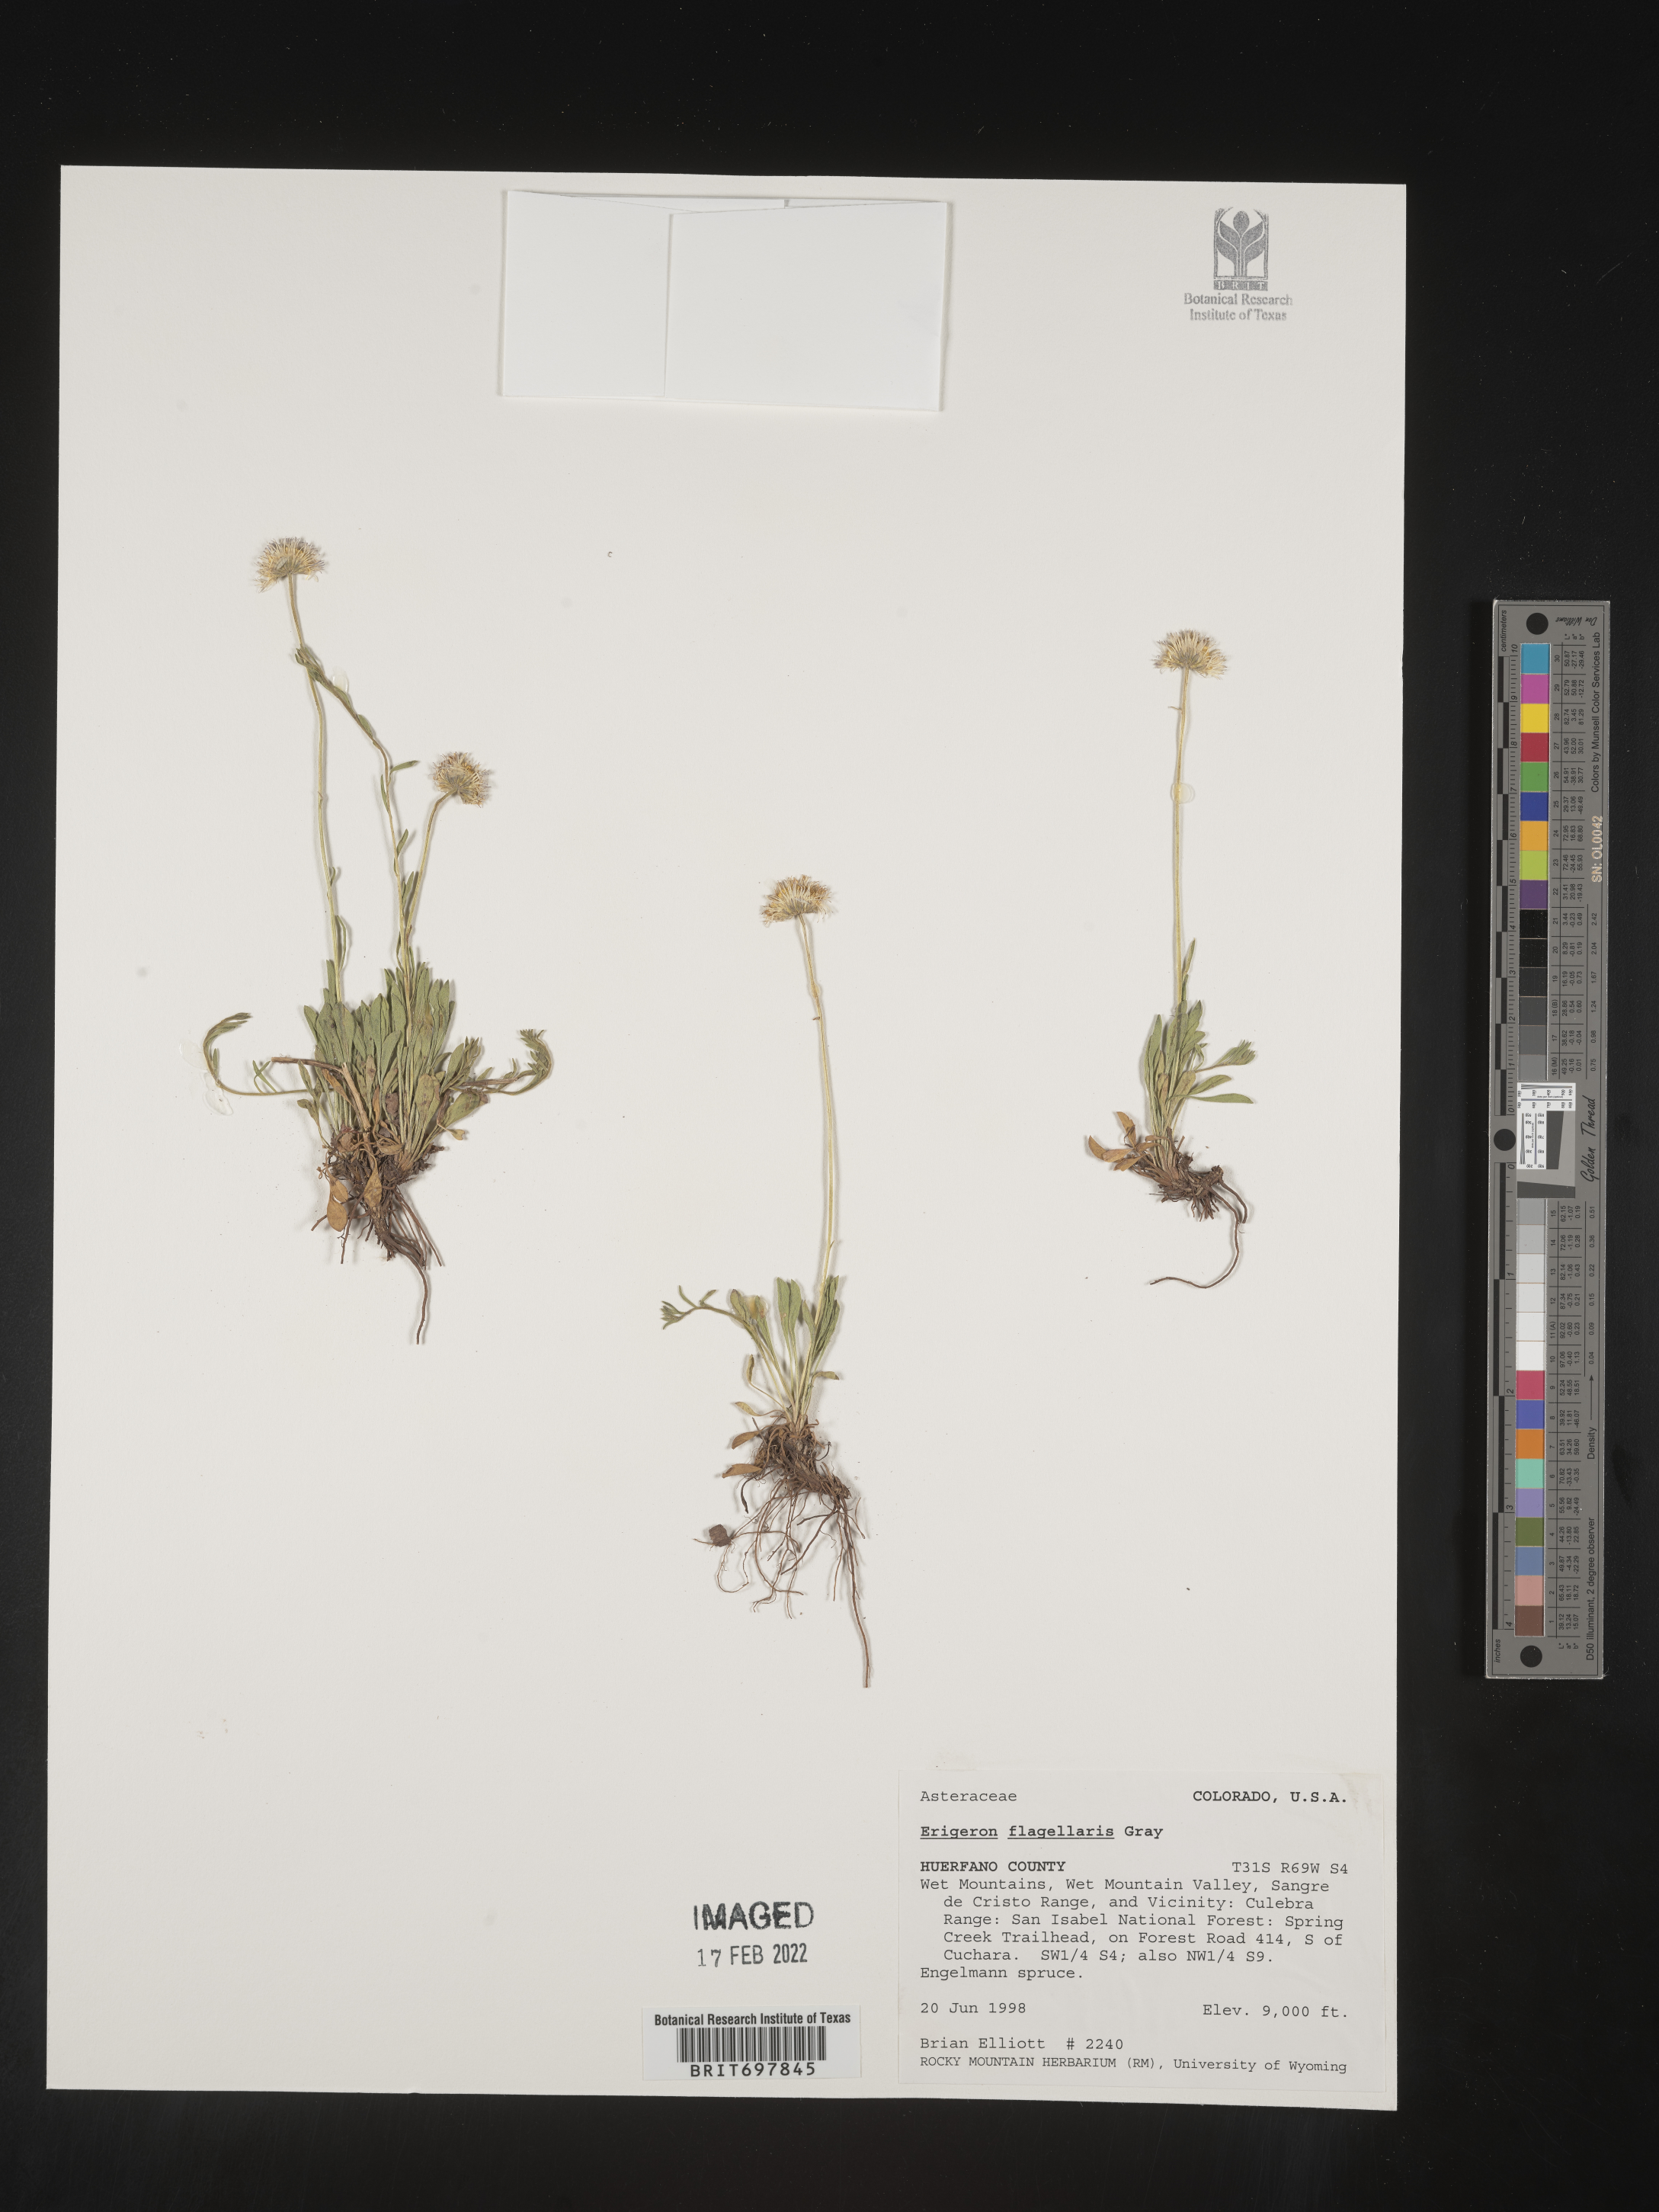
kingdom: Plantae
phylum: Tracheophyta
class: Magnoliopsida
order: Asterales
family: Asteraceae
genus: Erigeron
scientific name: Erigeron flagellaris
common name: Running fleabane
